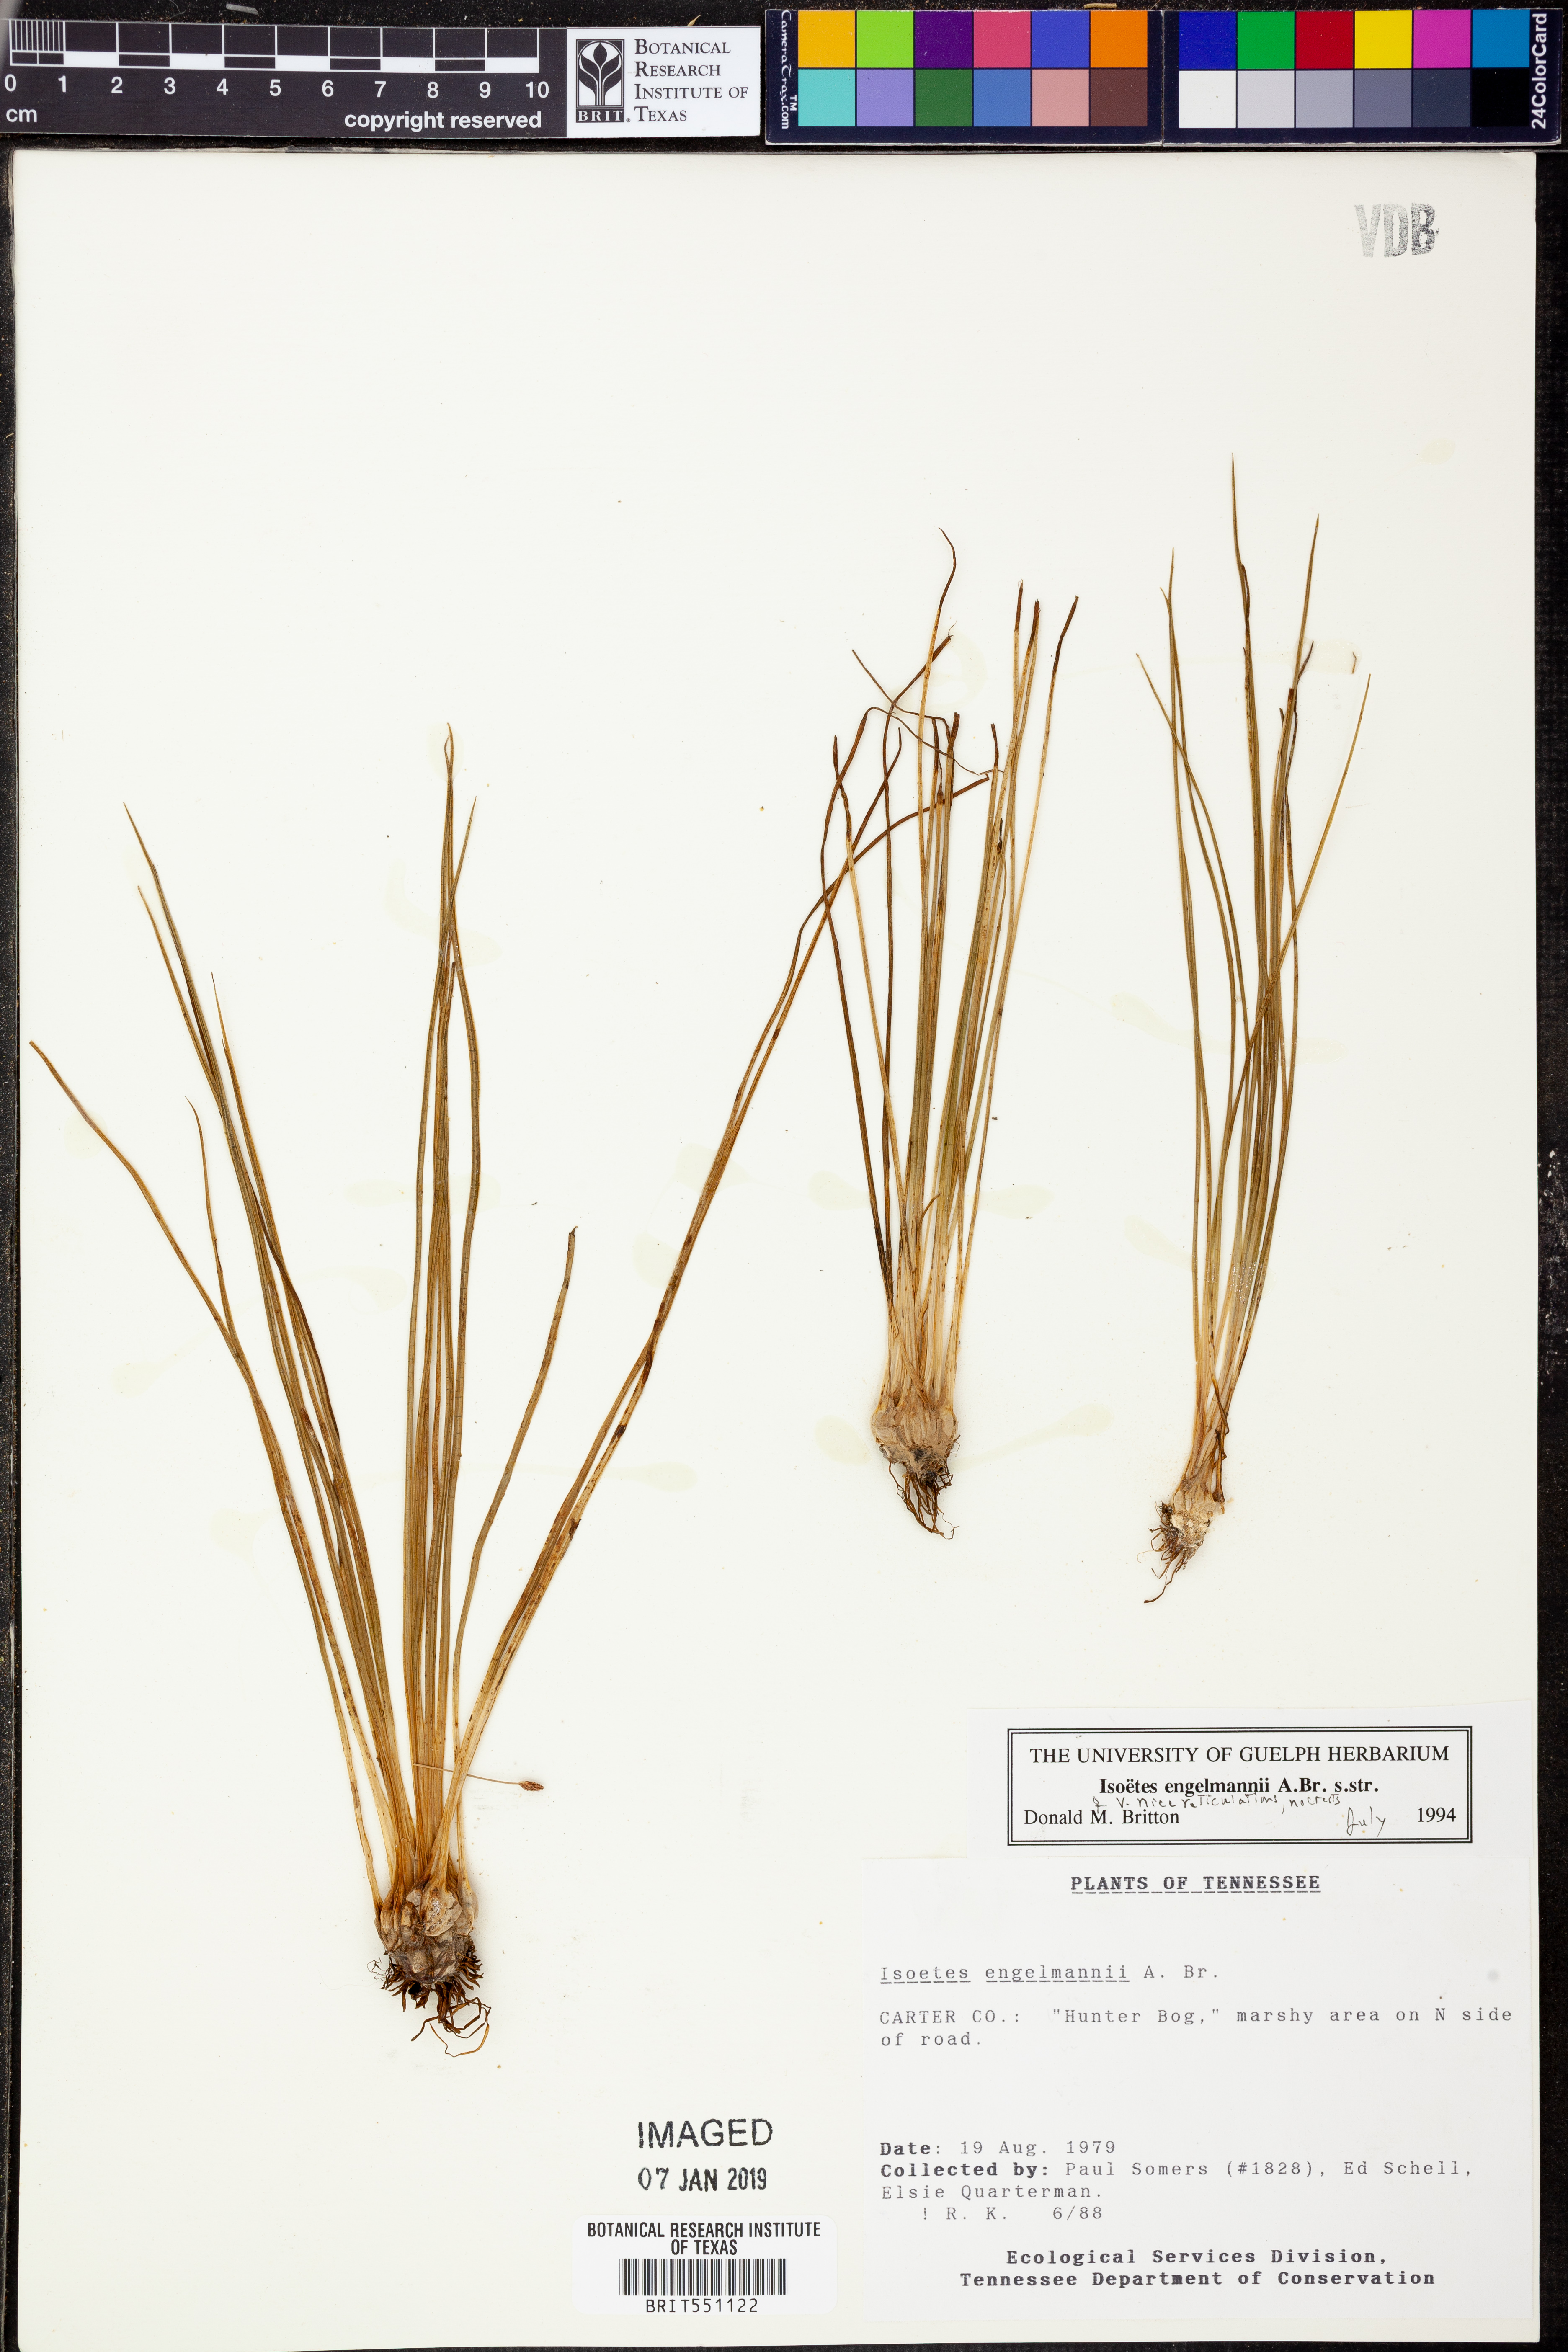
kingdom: Plantae
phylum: Tracheophyta
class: Lycopodiopsida
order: Isoetales
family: Isoetaceae
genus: Isoetes
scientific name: Isoetes engelmannii
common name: Engelmann's quillwort
